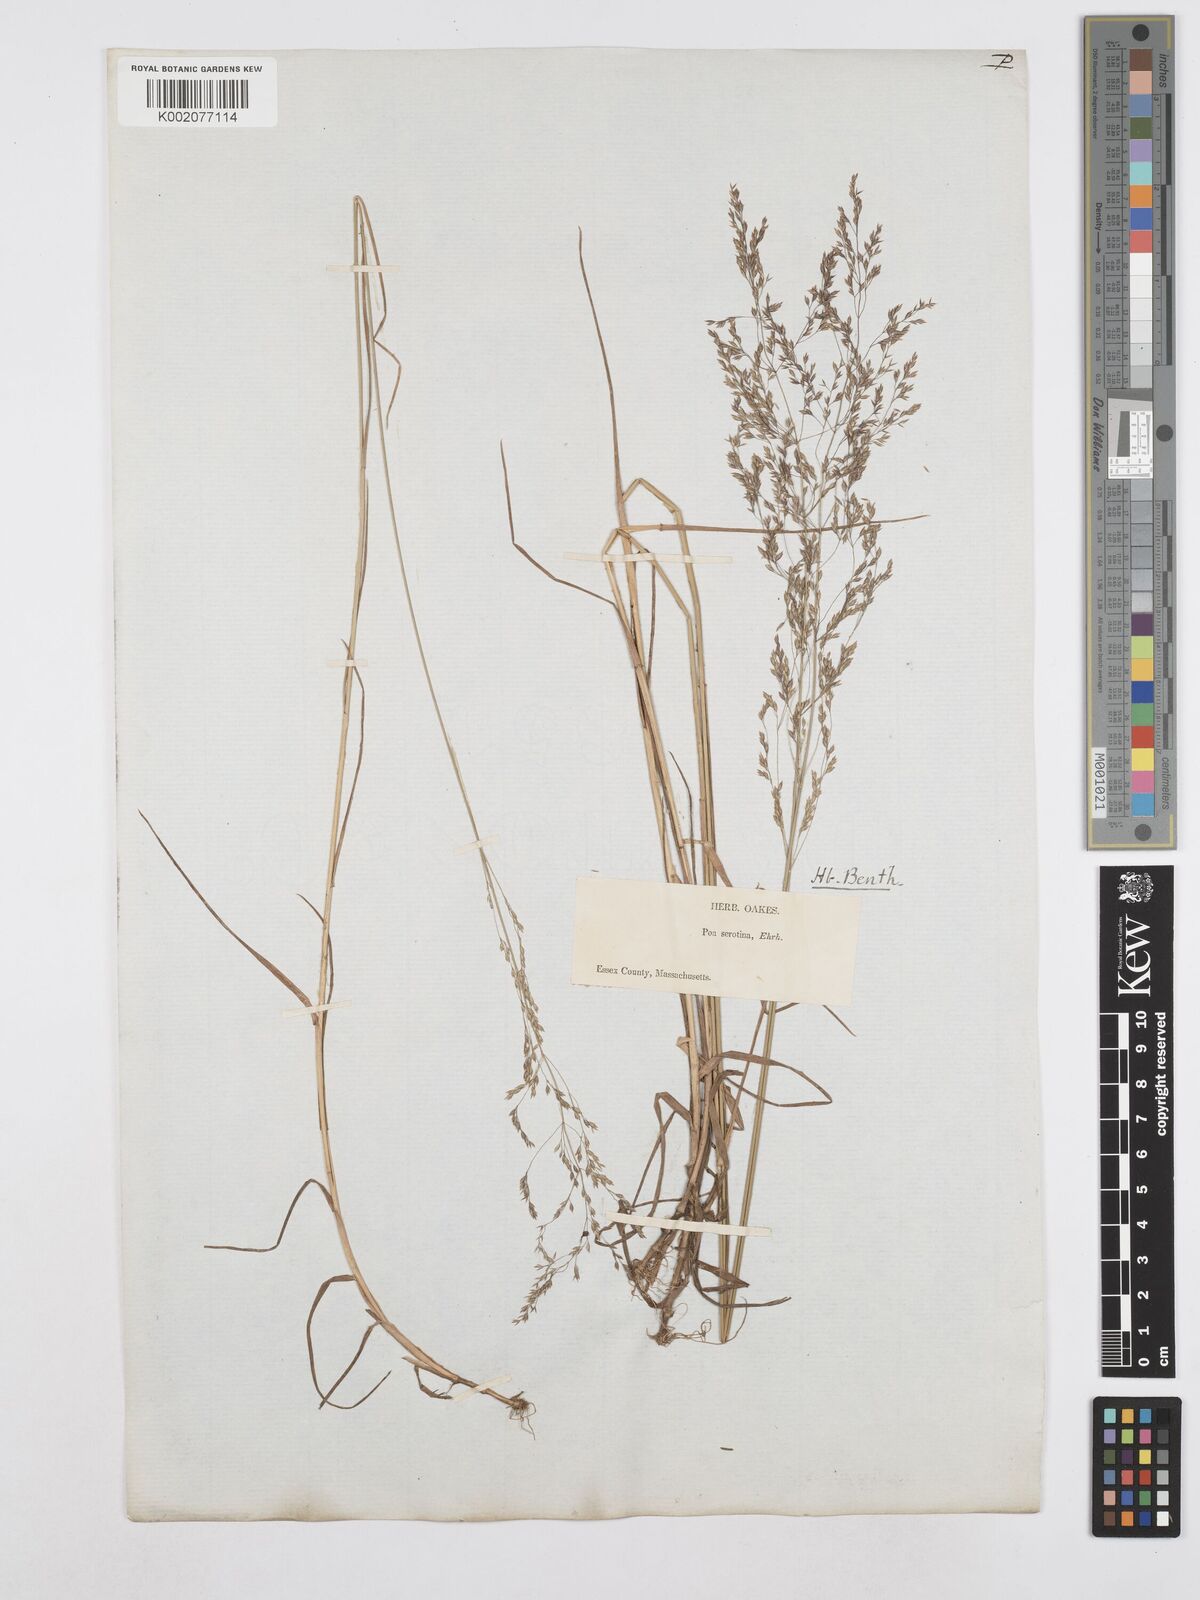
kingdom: Plantae
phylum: Tracheophyta
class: Liliopsida
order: Poales
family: Poaceae
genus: Poa
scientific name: Poa palustris
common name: Swamp meadow-grass
